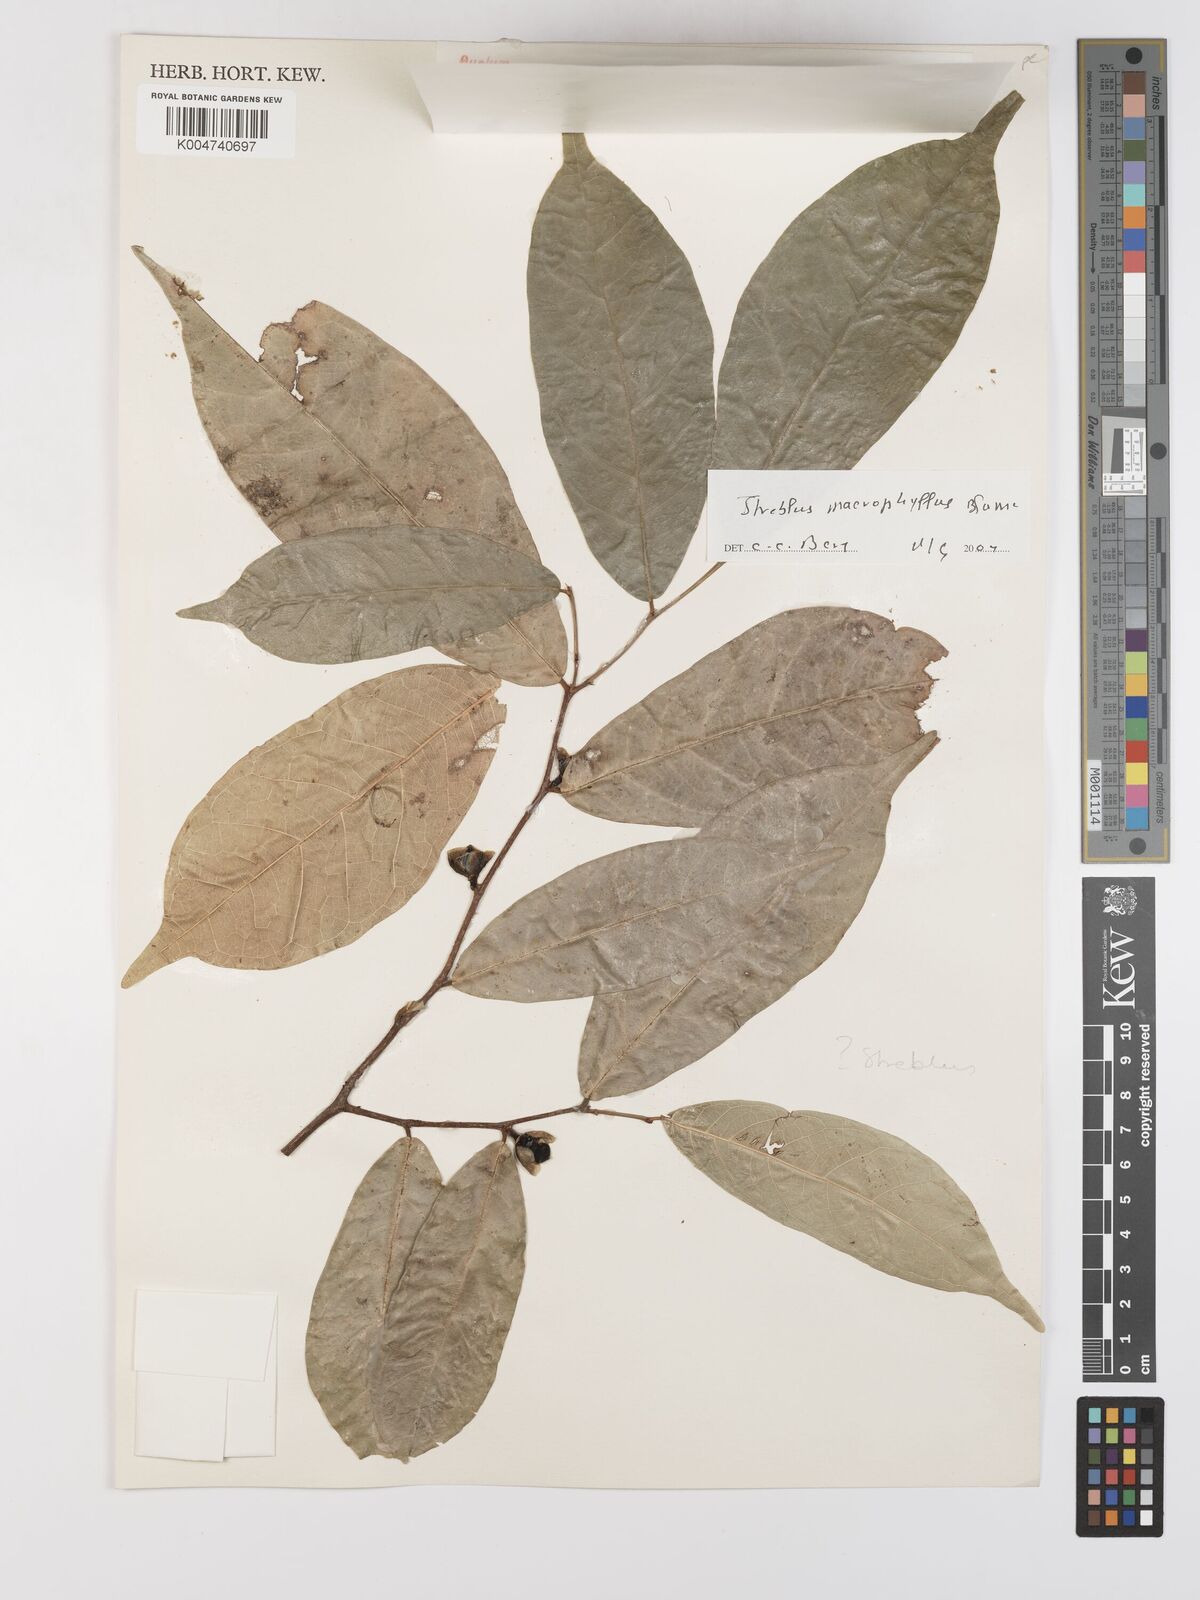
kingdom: Plantae
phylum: Tracheophyta
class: Magnoliopsida
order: Rosales
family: Moraceae
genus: Taxotrophis
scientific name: Taxotrophis macrophylla
